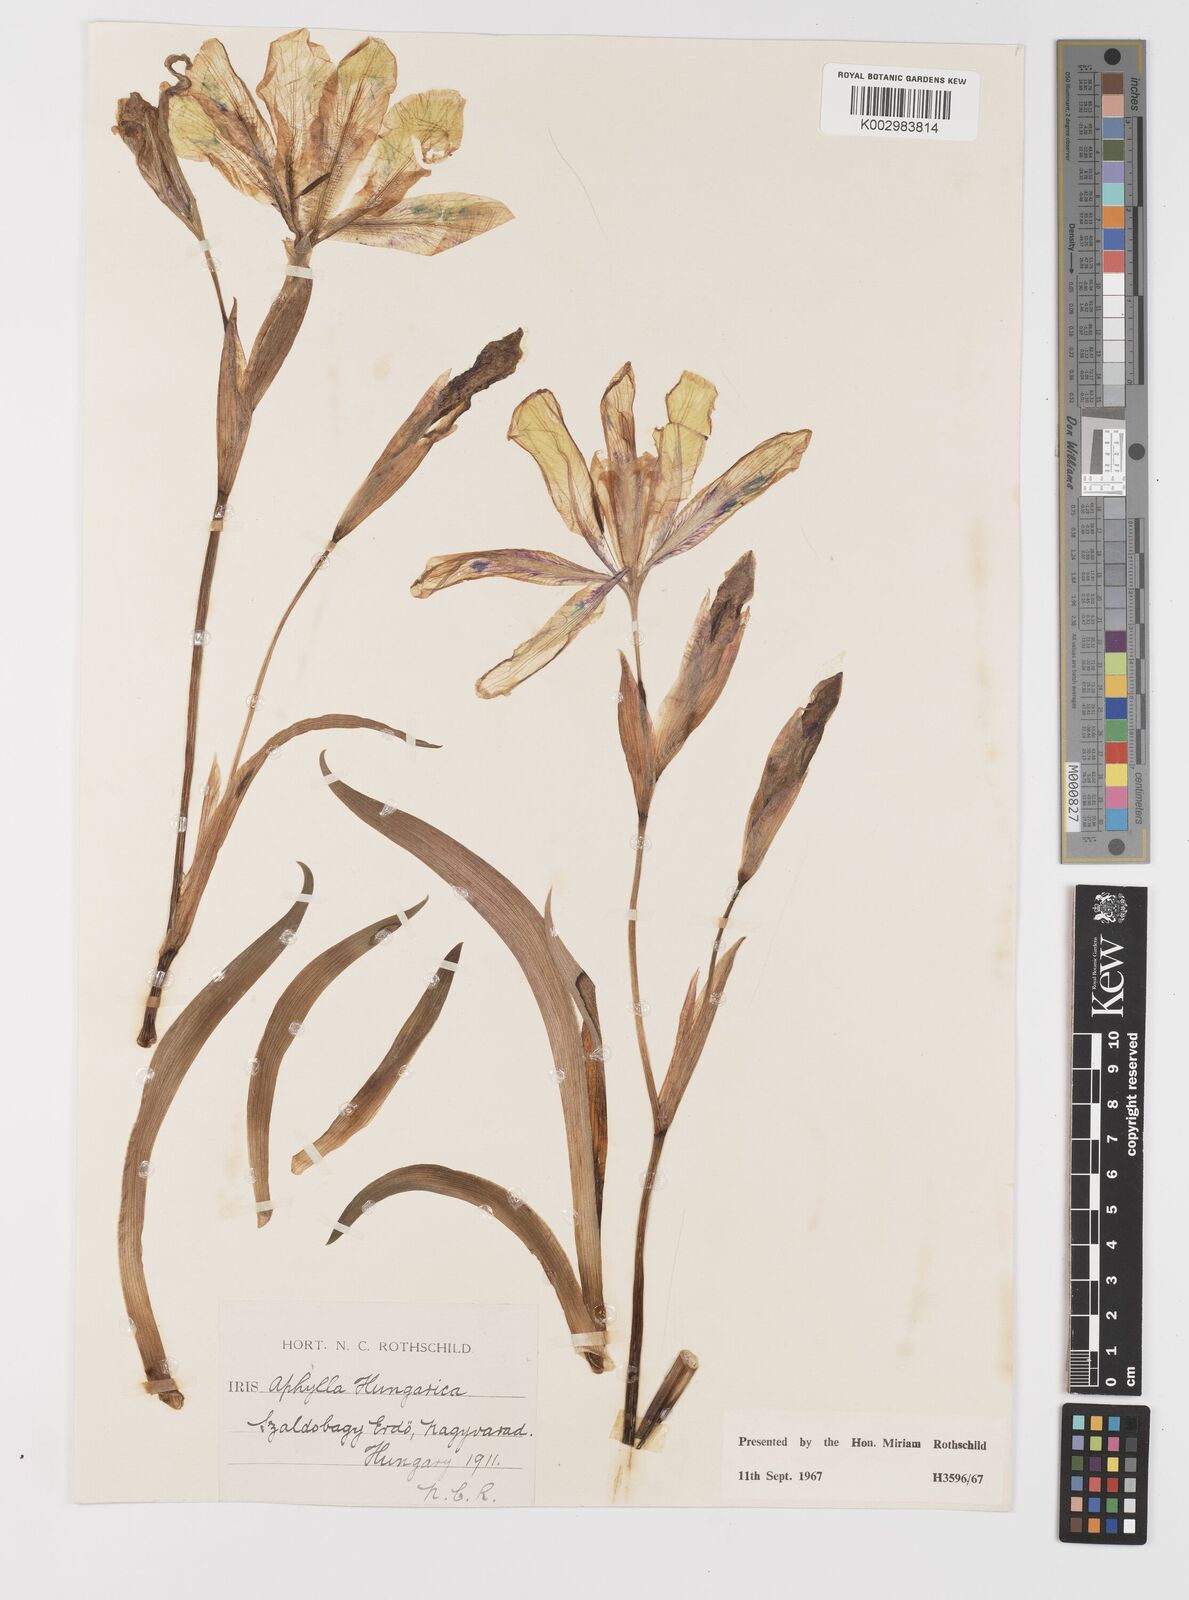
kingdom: Plantae
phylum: Tracheophyta
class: Liliopsida
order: Asparagales
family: Iridaceae
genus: Iris
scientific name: Iris aphylla
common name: Stool iris
